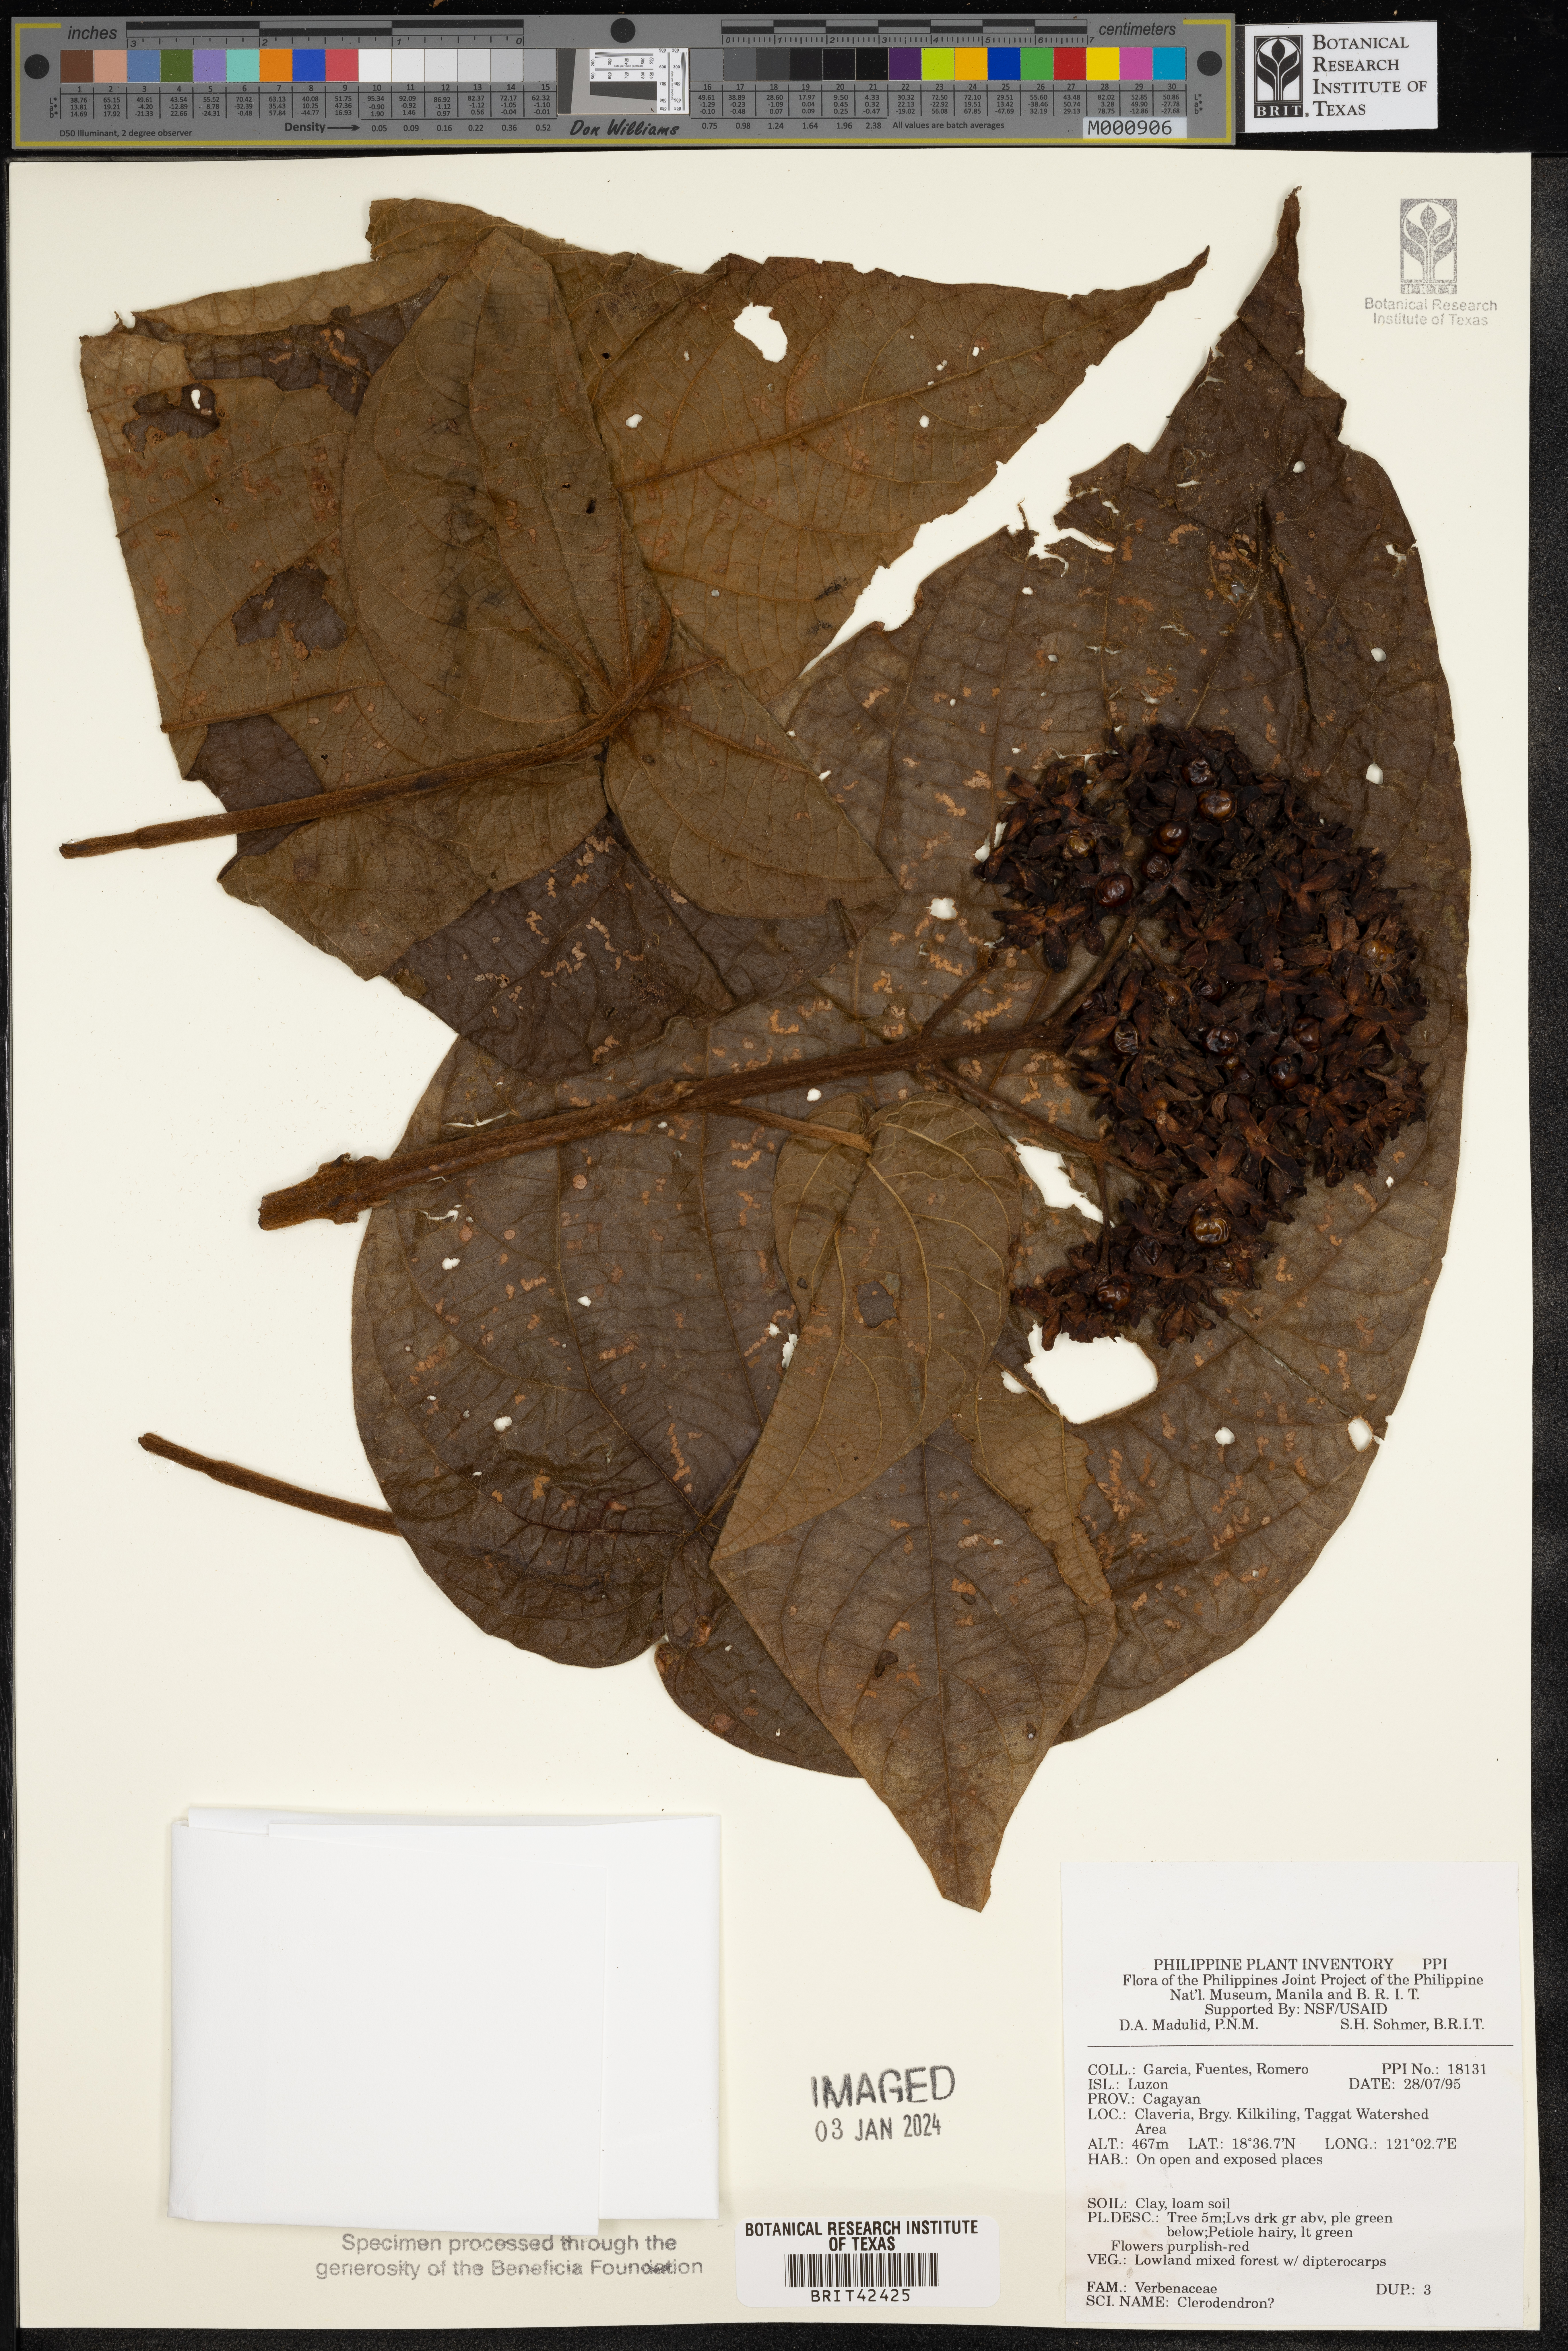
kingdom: Plantae
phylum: Tracheophyta
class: Magnoliopsida
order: Lamiales
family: Lamiaceae
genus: Clerodendrum
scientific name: Clerodendrum
